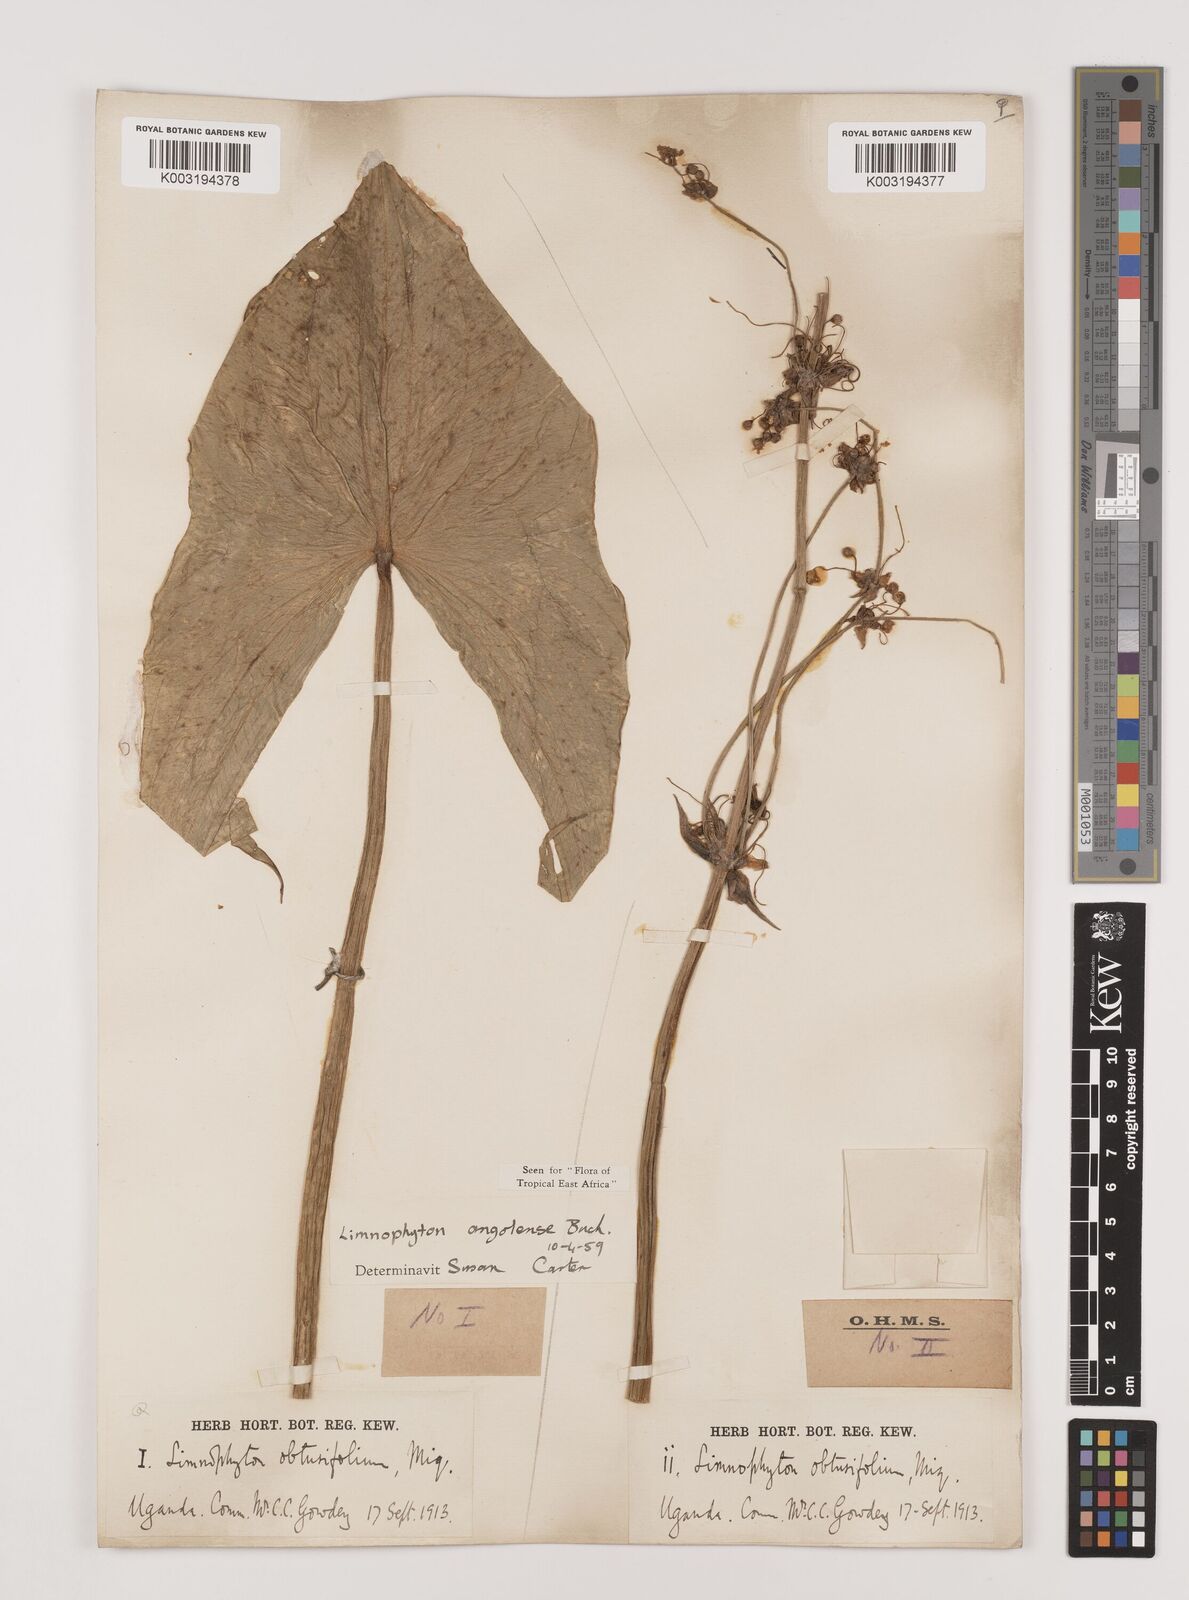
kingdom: Plantae
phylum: Tracheophyta
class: Liliopsida
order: Alismatales
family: Alismataceae
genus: Limnophyton
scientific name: Limnophyton angolense
